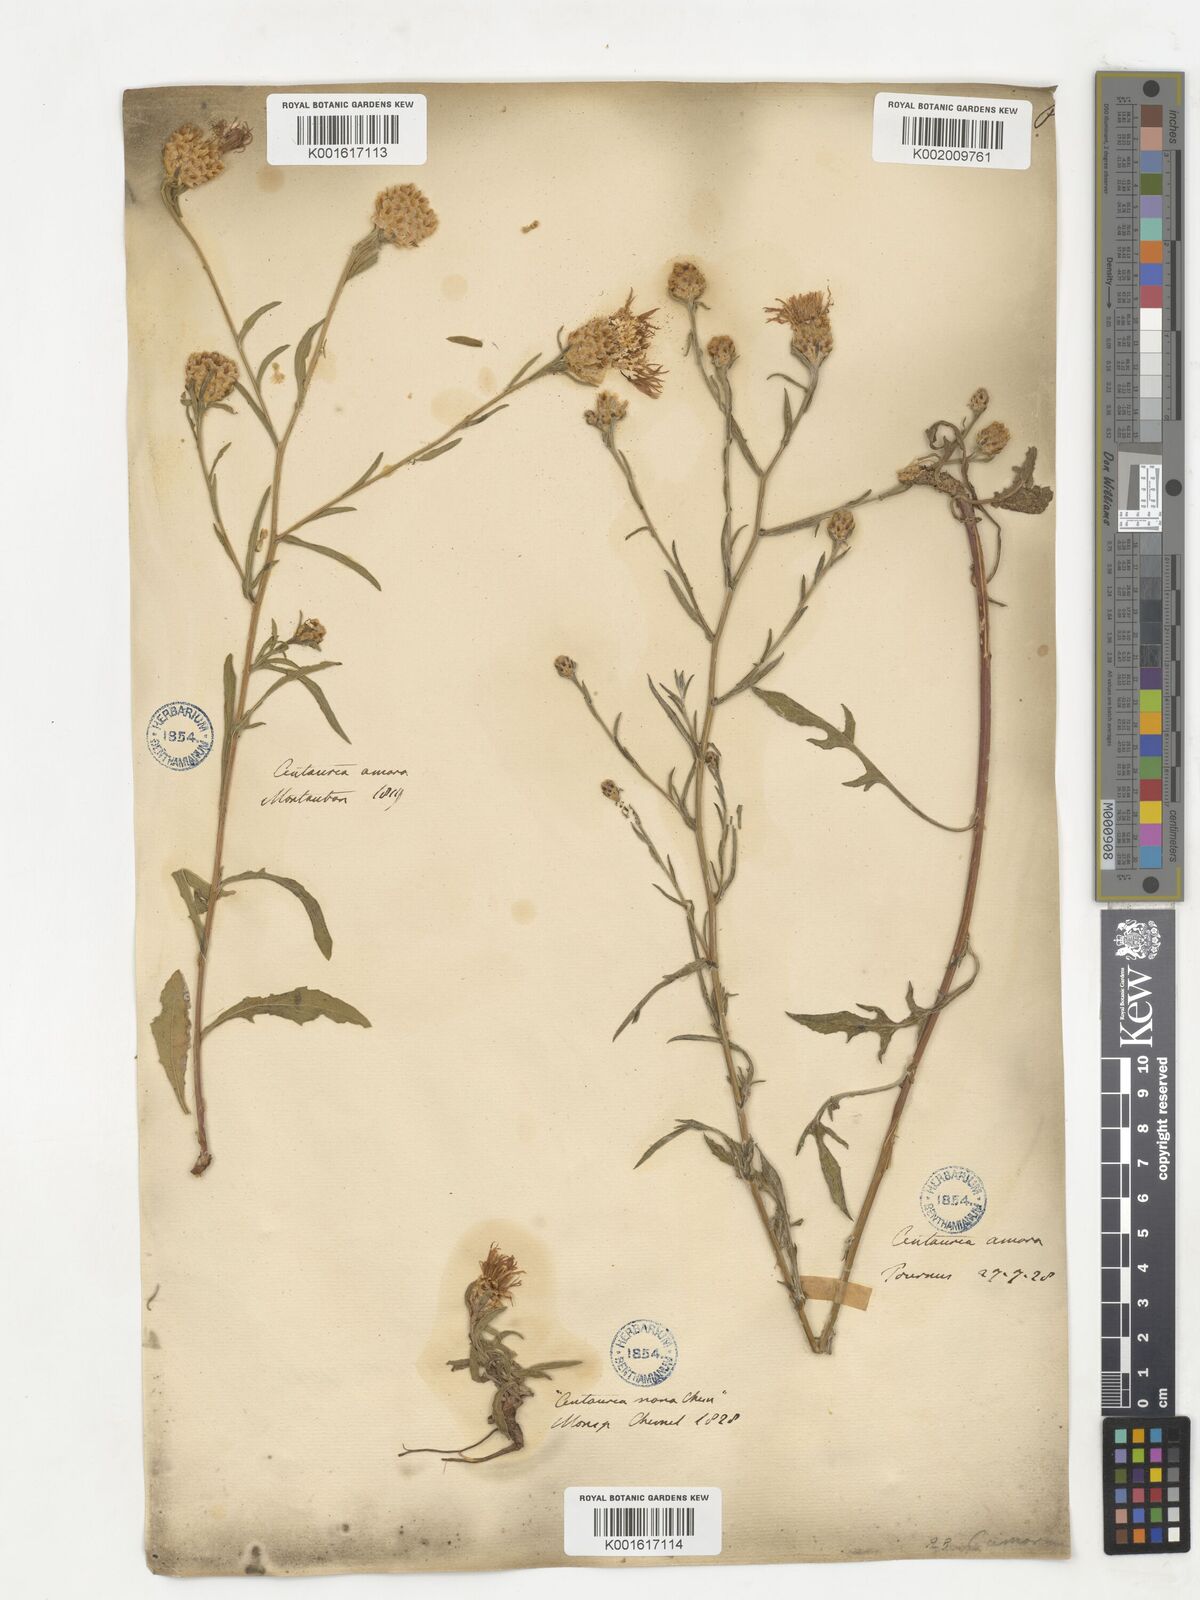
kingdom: Plantae
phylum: Tracheophyta
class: Magnoliopsida
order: Asterales
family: Asteraceae
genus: Centaurea
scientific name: Centaurea jacea
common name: Brown knapweed
